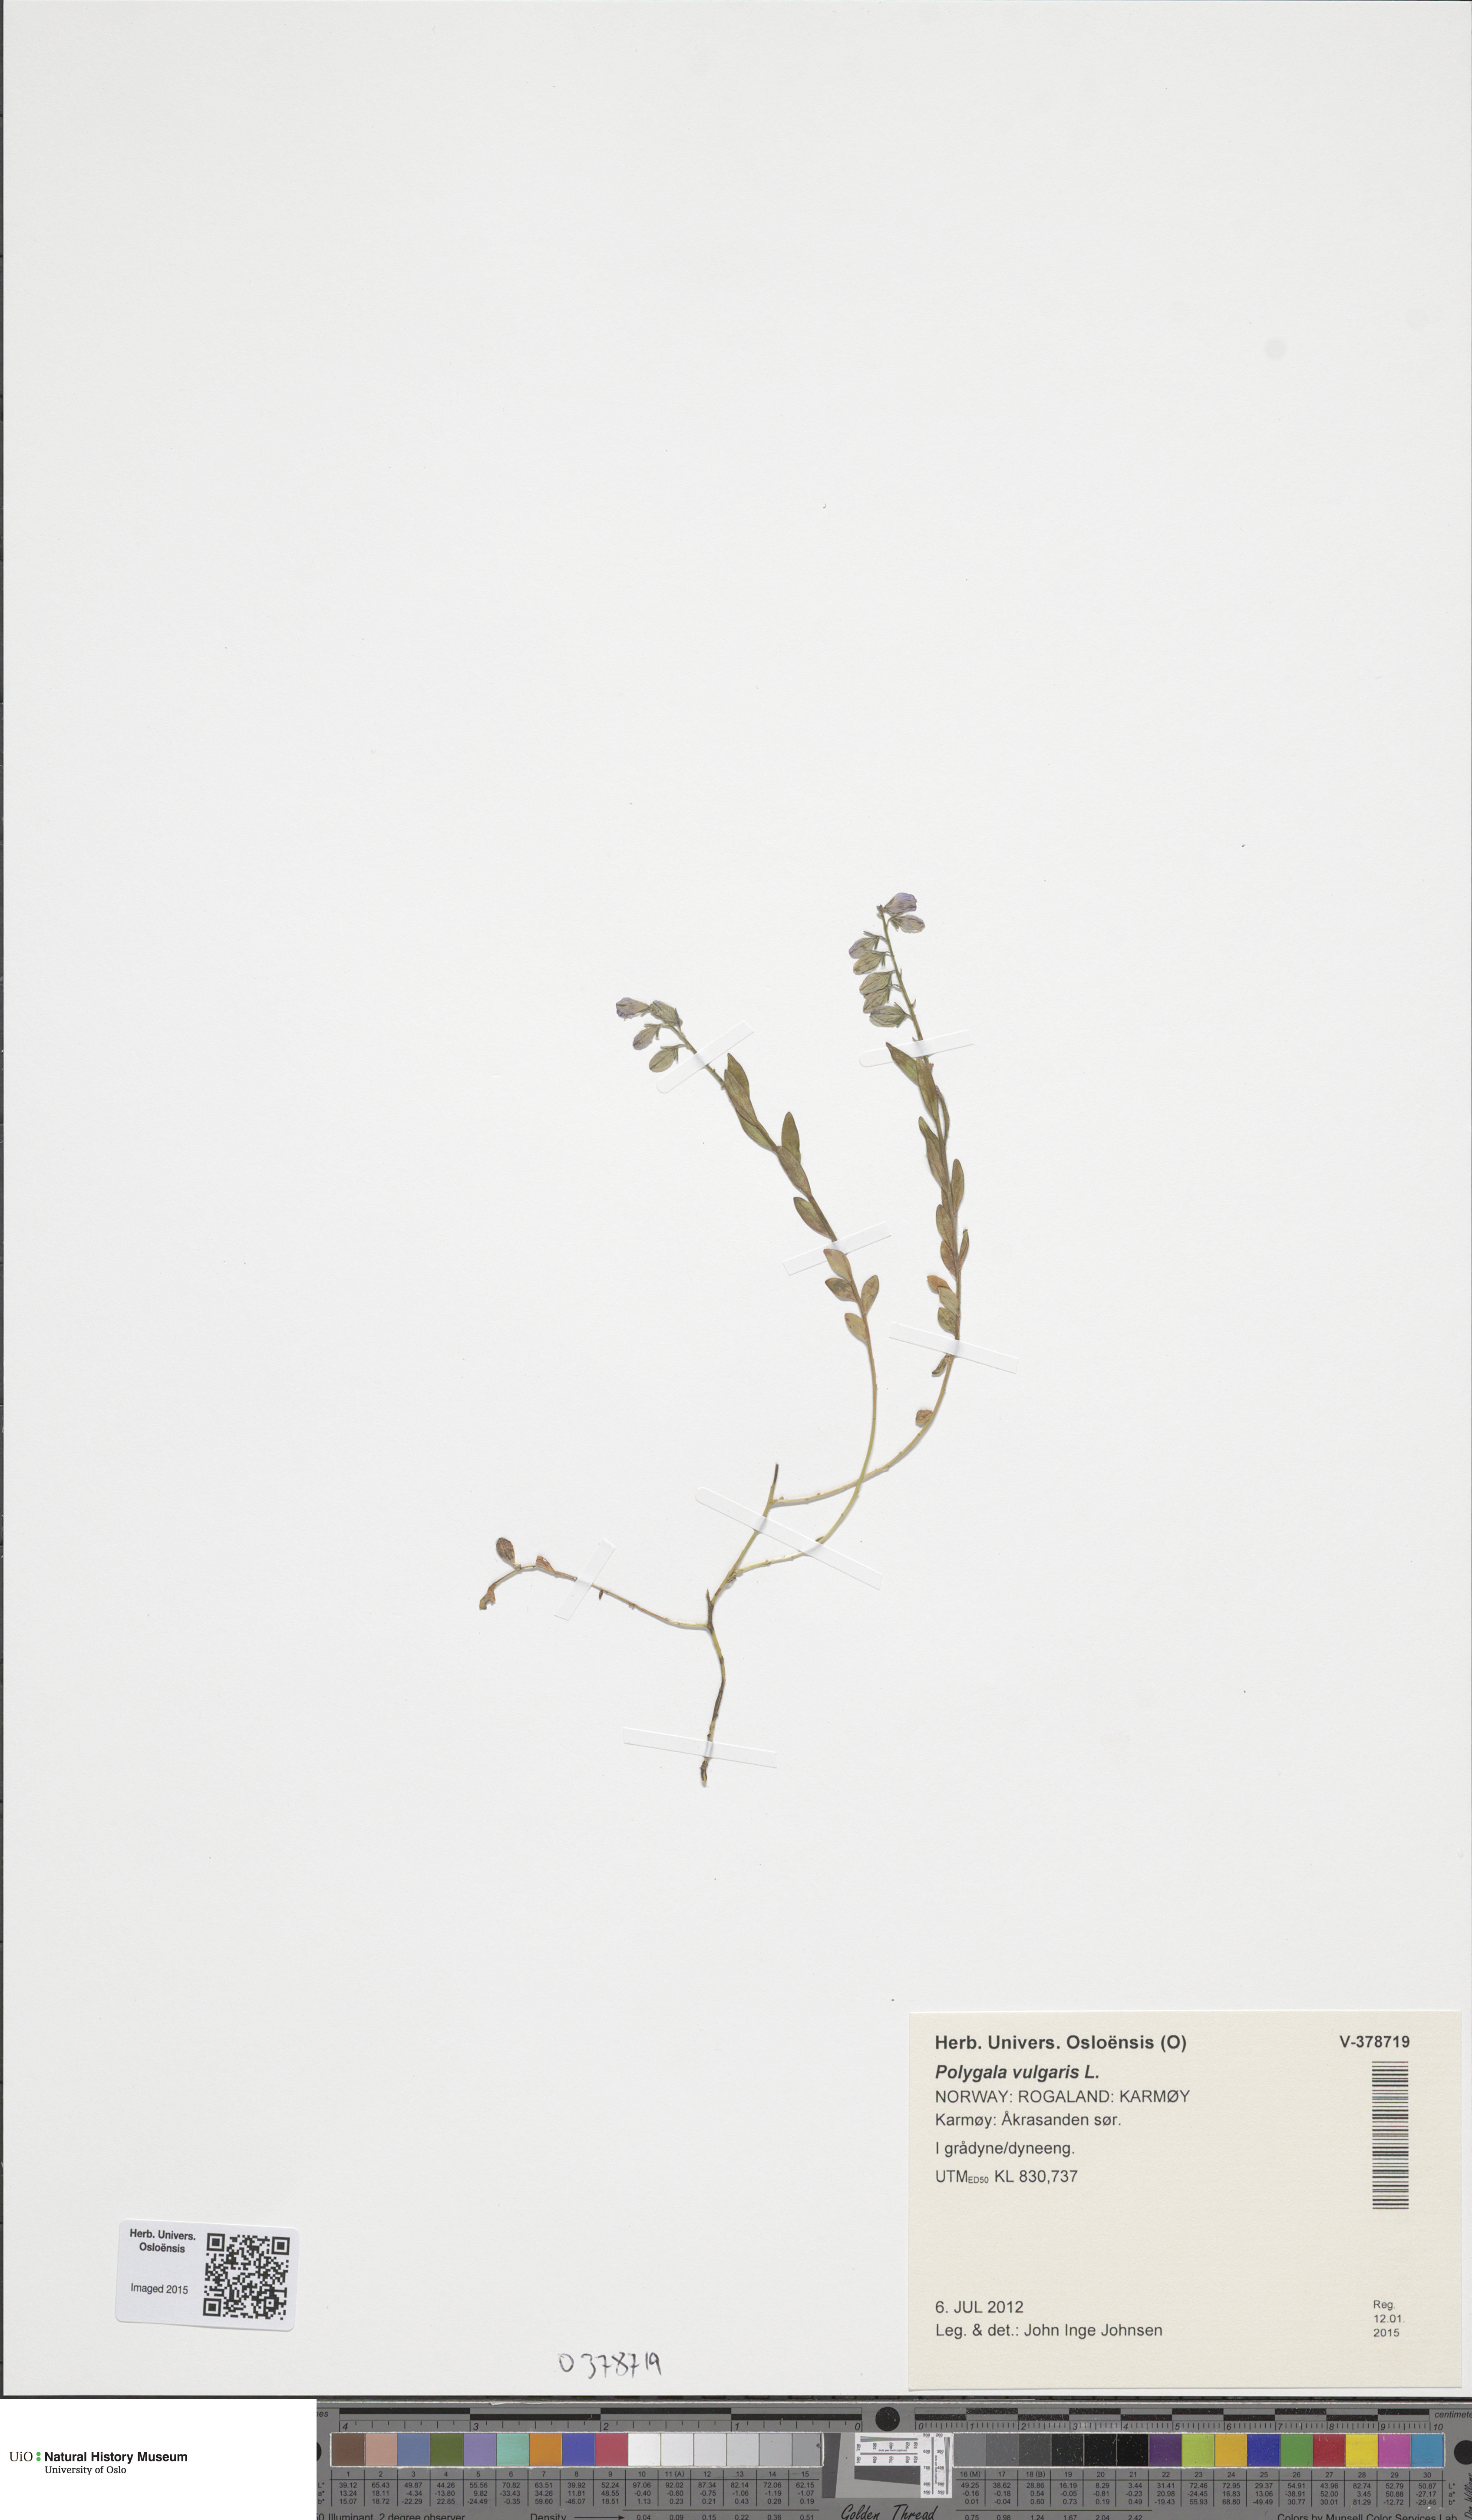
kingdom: Plantae
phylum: Tracheophyta
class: Magnoliopsida
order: Fabales
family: Polygalaceae
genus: Polygala
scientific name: Polygala vulgaris
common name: Common milkwort
